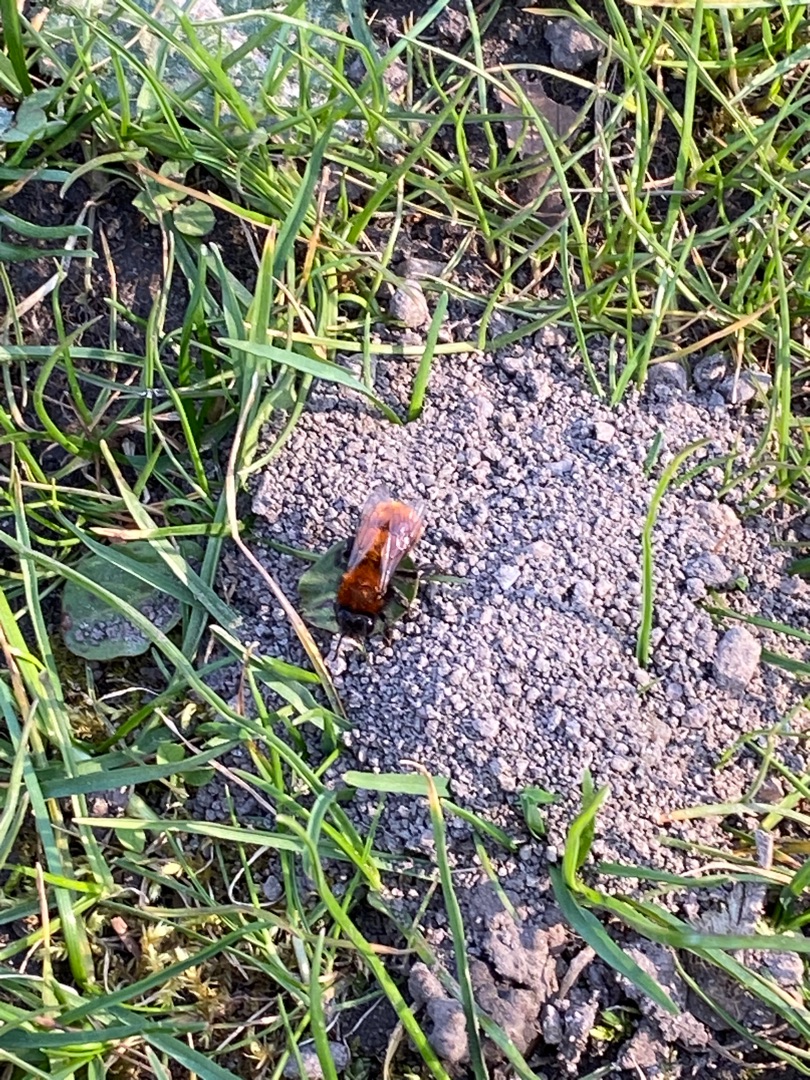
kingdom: Animalia
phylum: Arthropoda
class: Insecta
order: Hymenoptera
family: Andrenidae
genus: Andrena
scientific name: Andrena fulva
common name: Rødpelset jordbi
